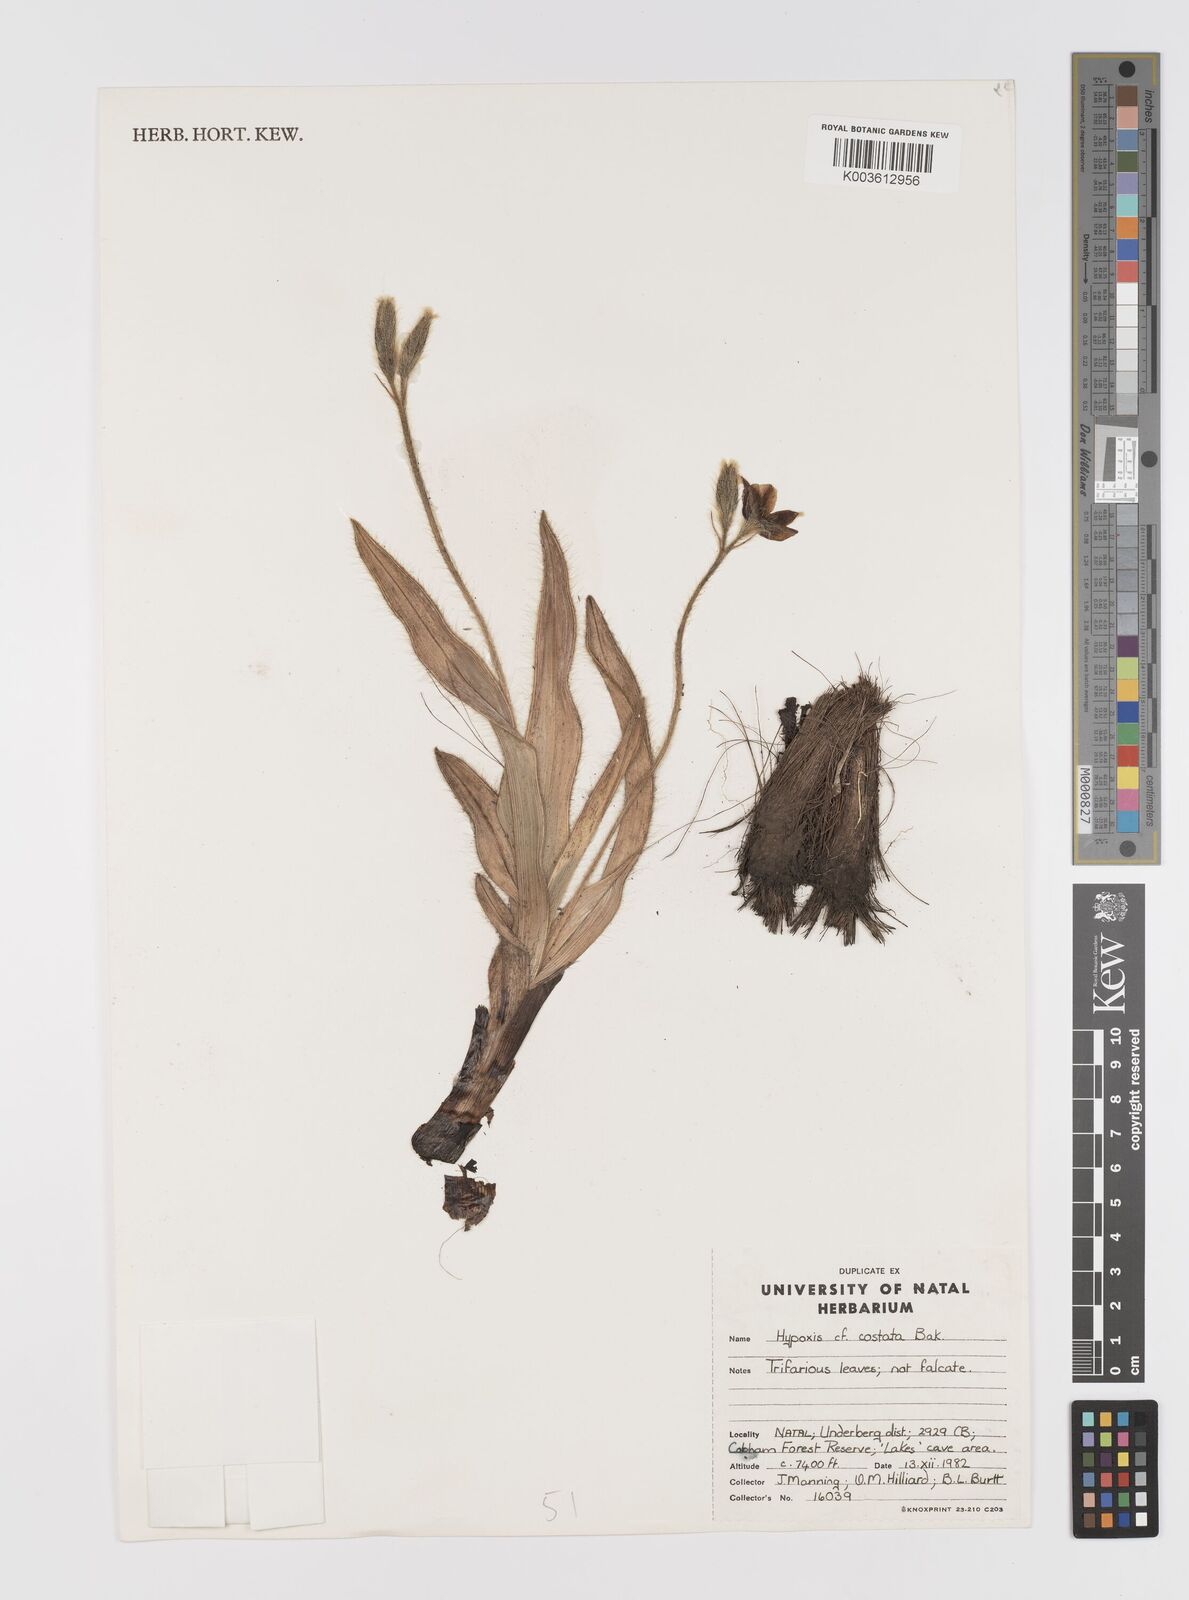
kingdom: Plantae
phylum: Tracheophyta
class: Liliopsida
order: Asparagales
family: Hypoxidaceae
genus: Hypoxis
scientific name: Hypoxis costata
